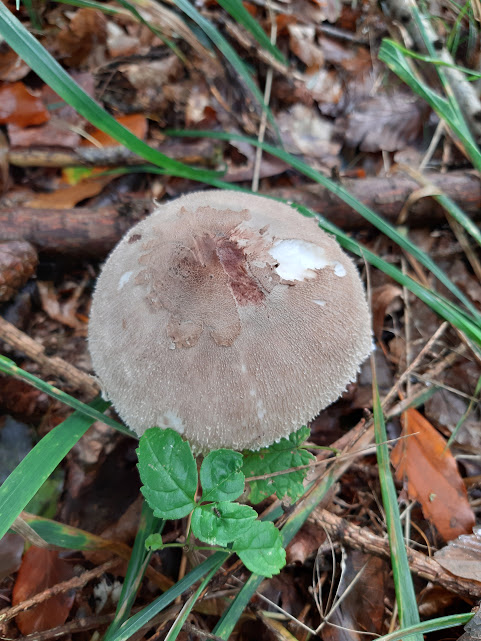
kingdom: Fungi
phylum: Basidiomycota
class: Agaricomycetes
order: Agaricales
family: Agaricaceae
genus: Macrolepiota
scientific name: Macrolepiota mastoidea
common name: puklet kæmpeparasolhat
